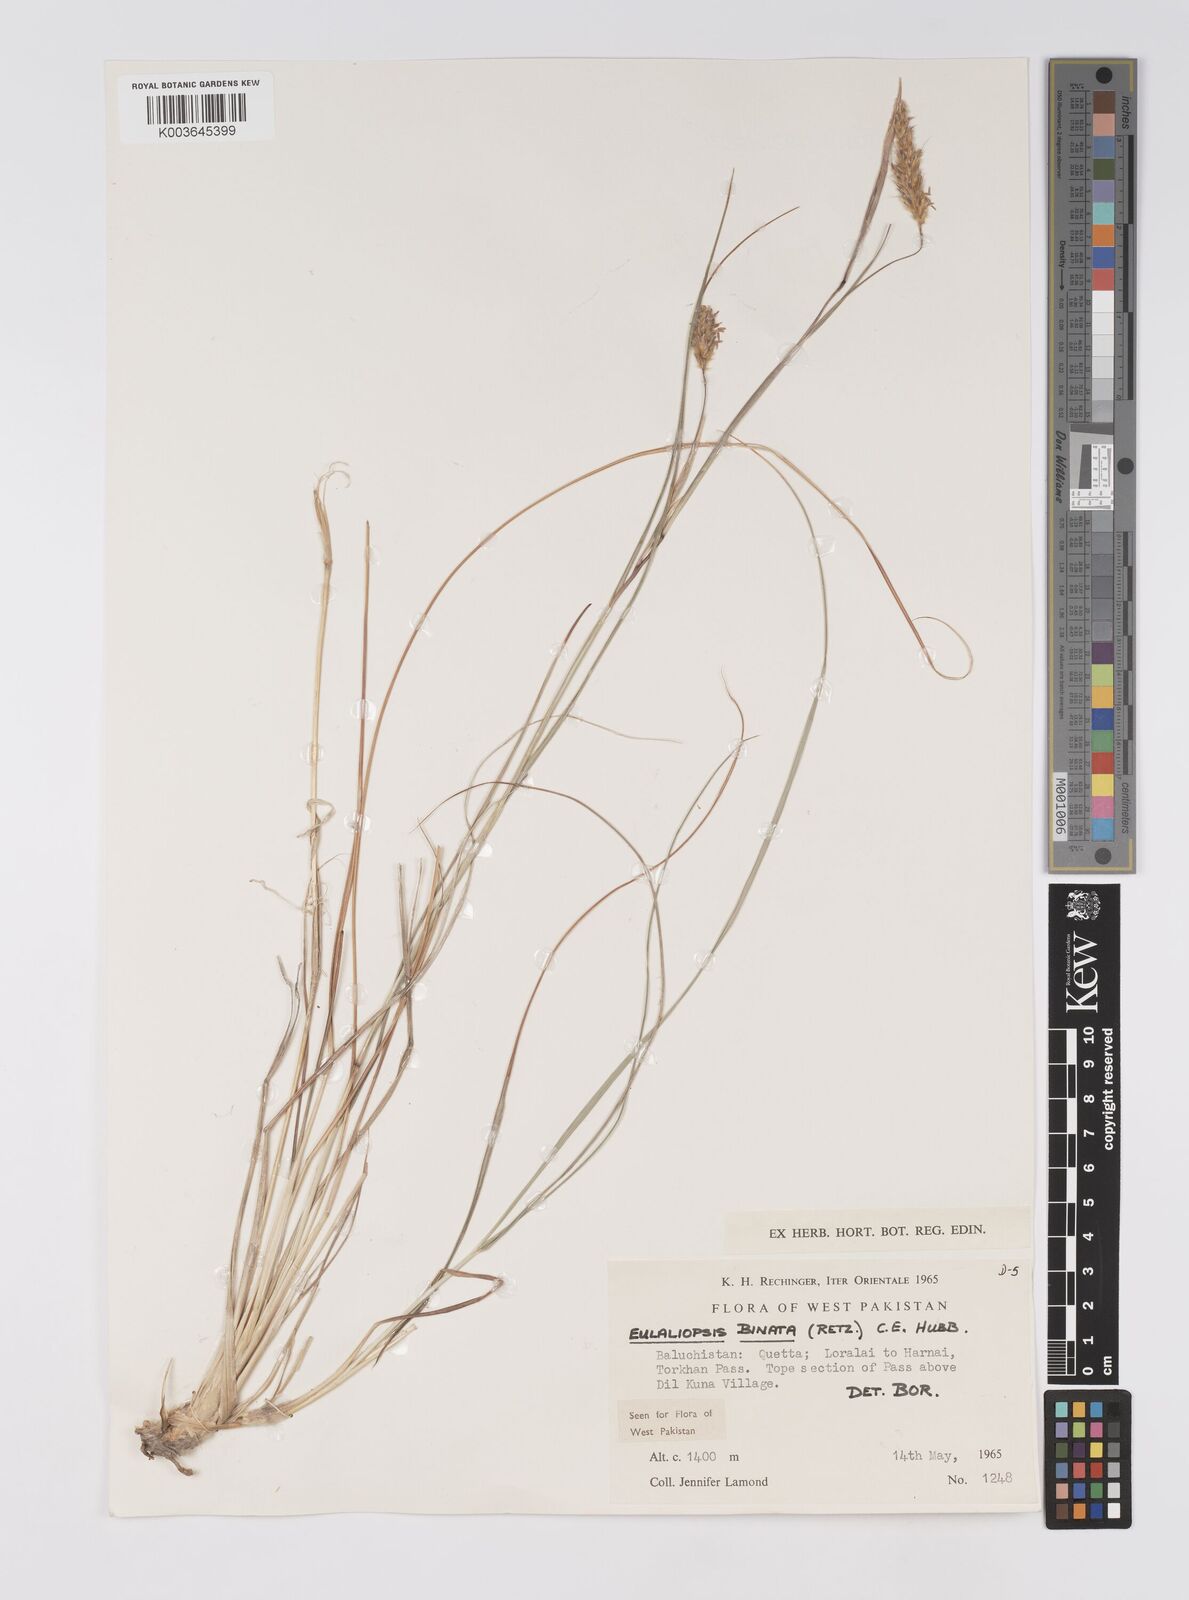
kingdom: Plantae
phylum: Tracheophyta
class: Liliopsida
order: Poales
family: Poaceae
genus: Eulaliopsis
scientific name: Eulaliopsis binata
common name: Baib grass
